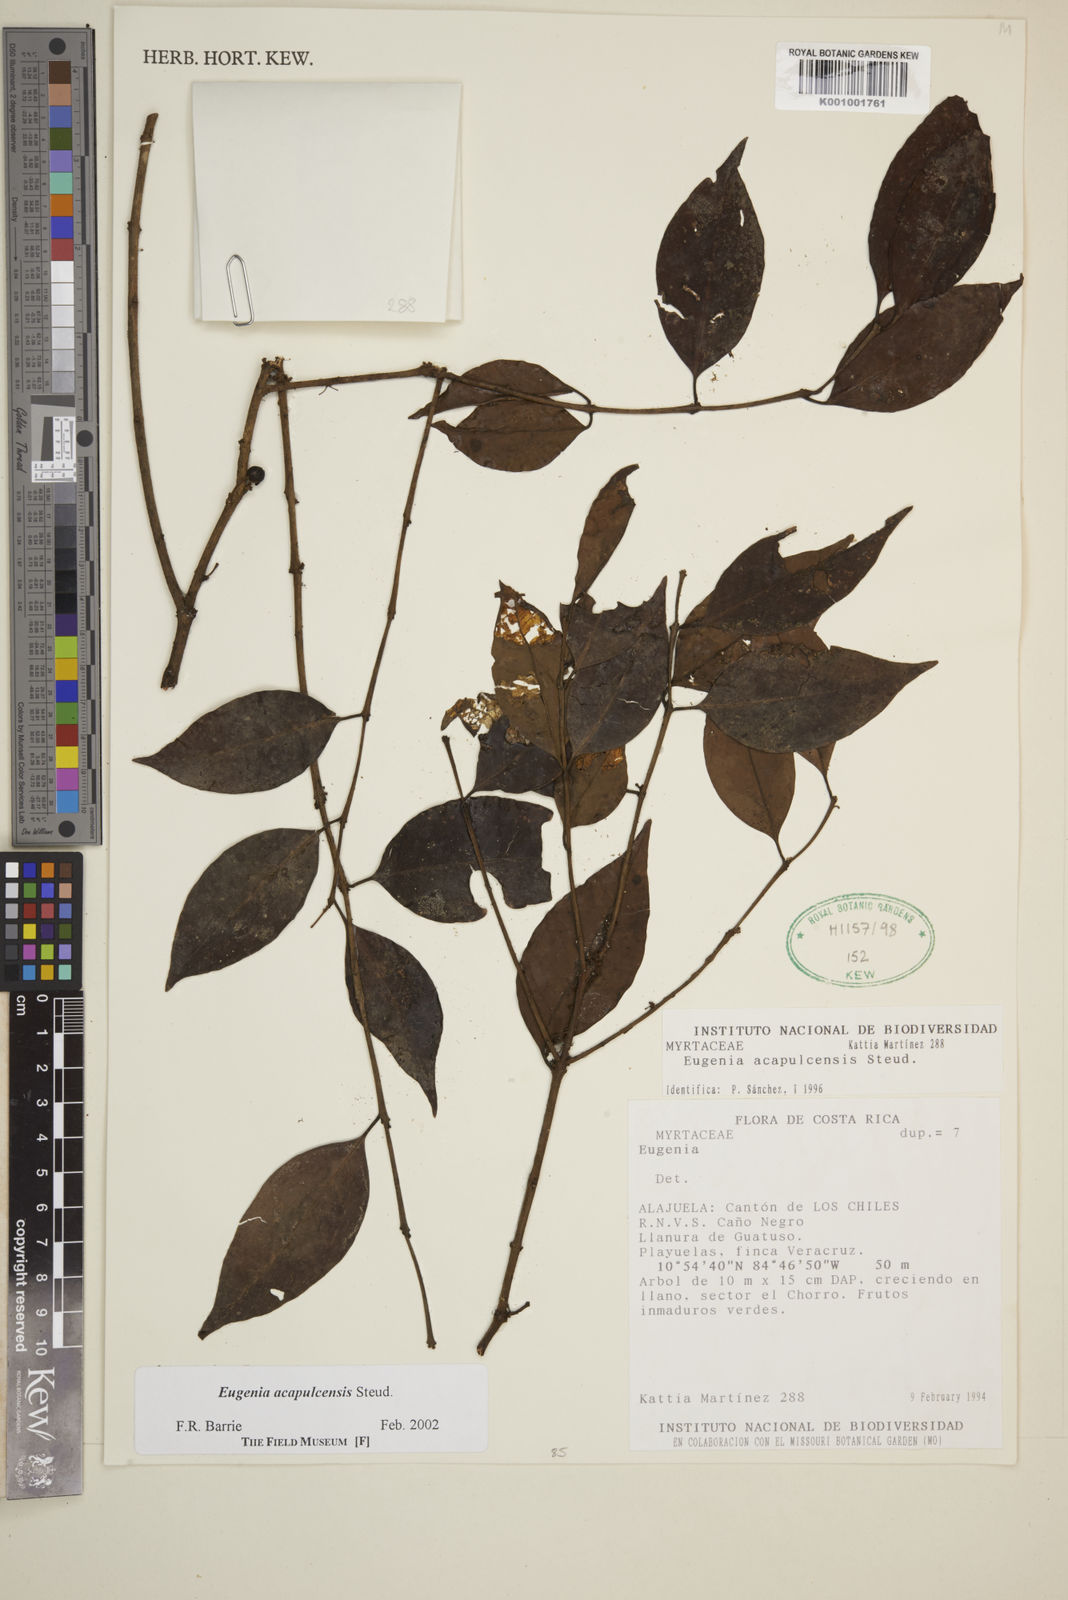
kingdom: Plantae
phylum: Tracheophyta
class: Magnoliopsida
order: Myrtales
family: Myrtaceae
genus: Eugenia
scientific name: Eugenia acapulcensis
